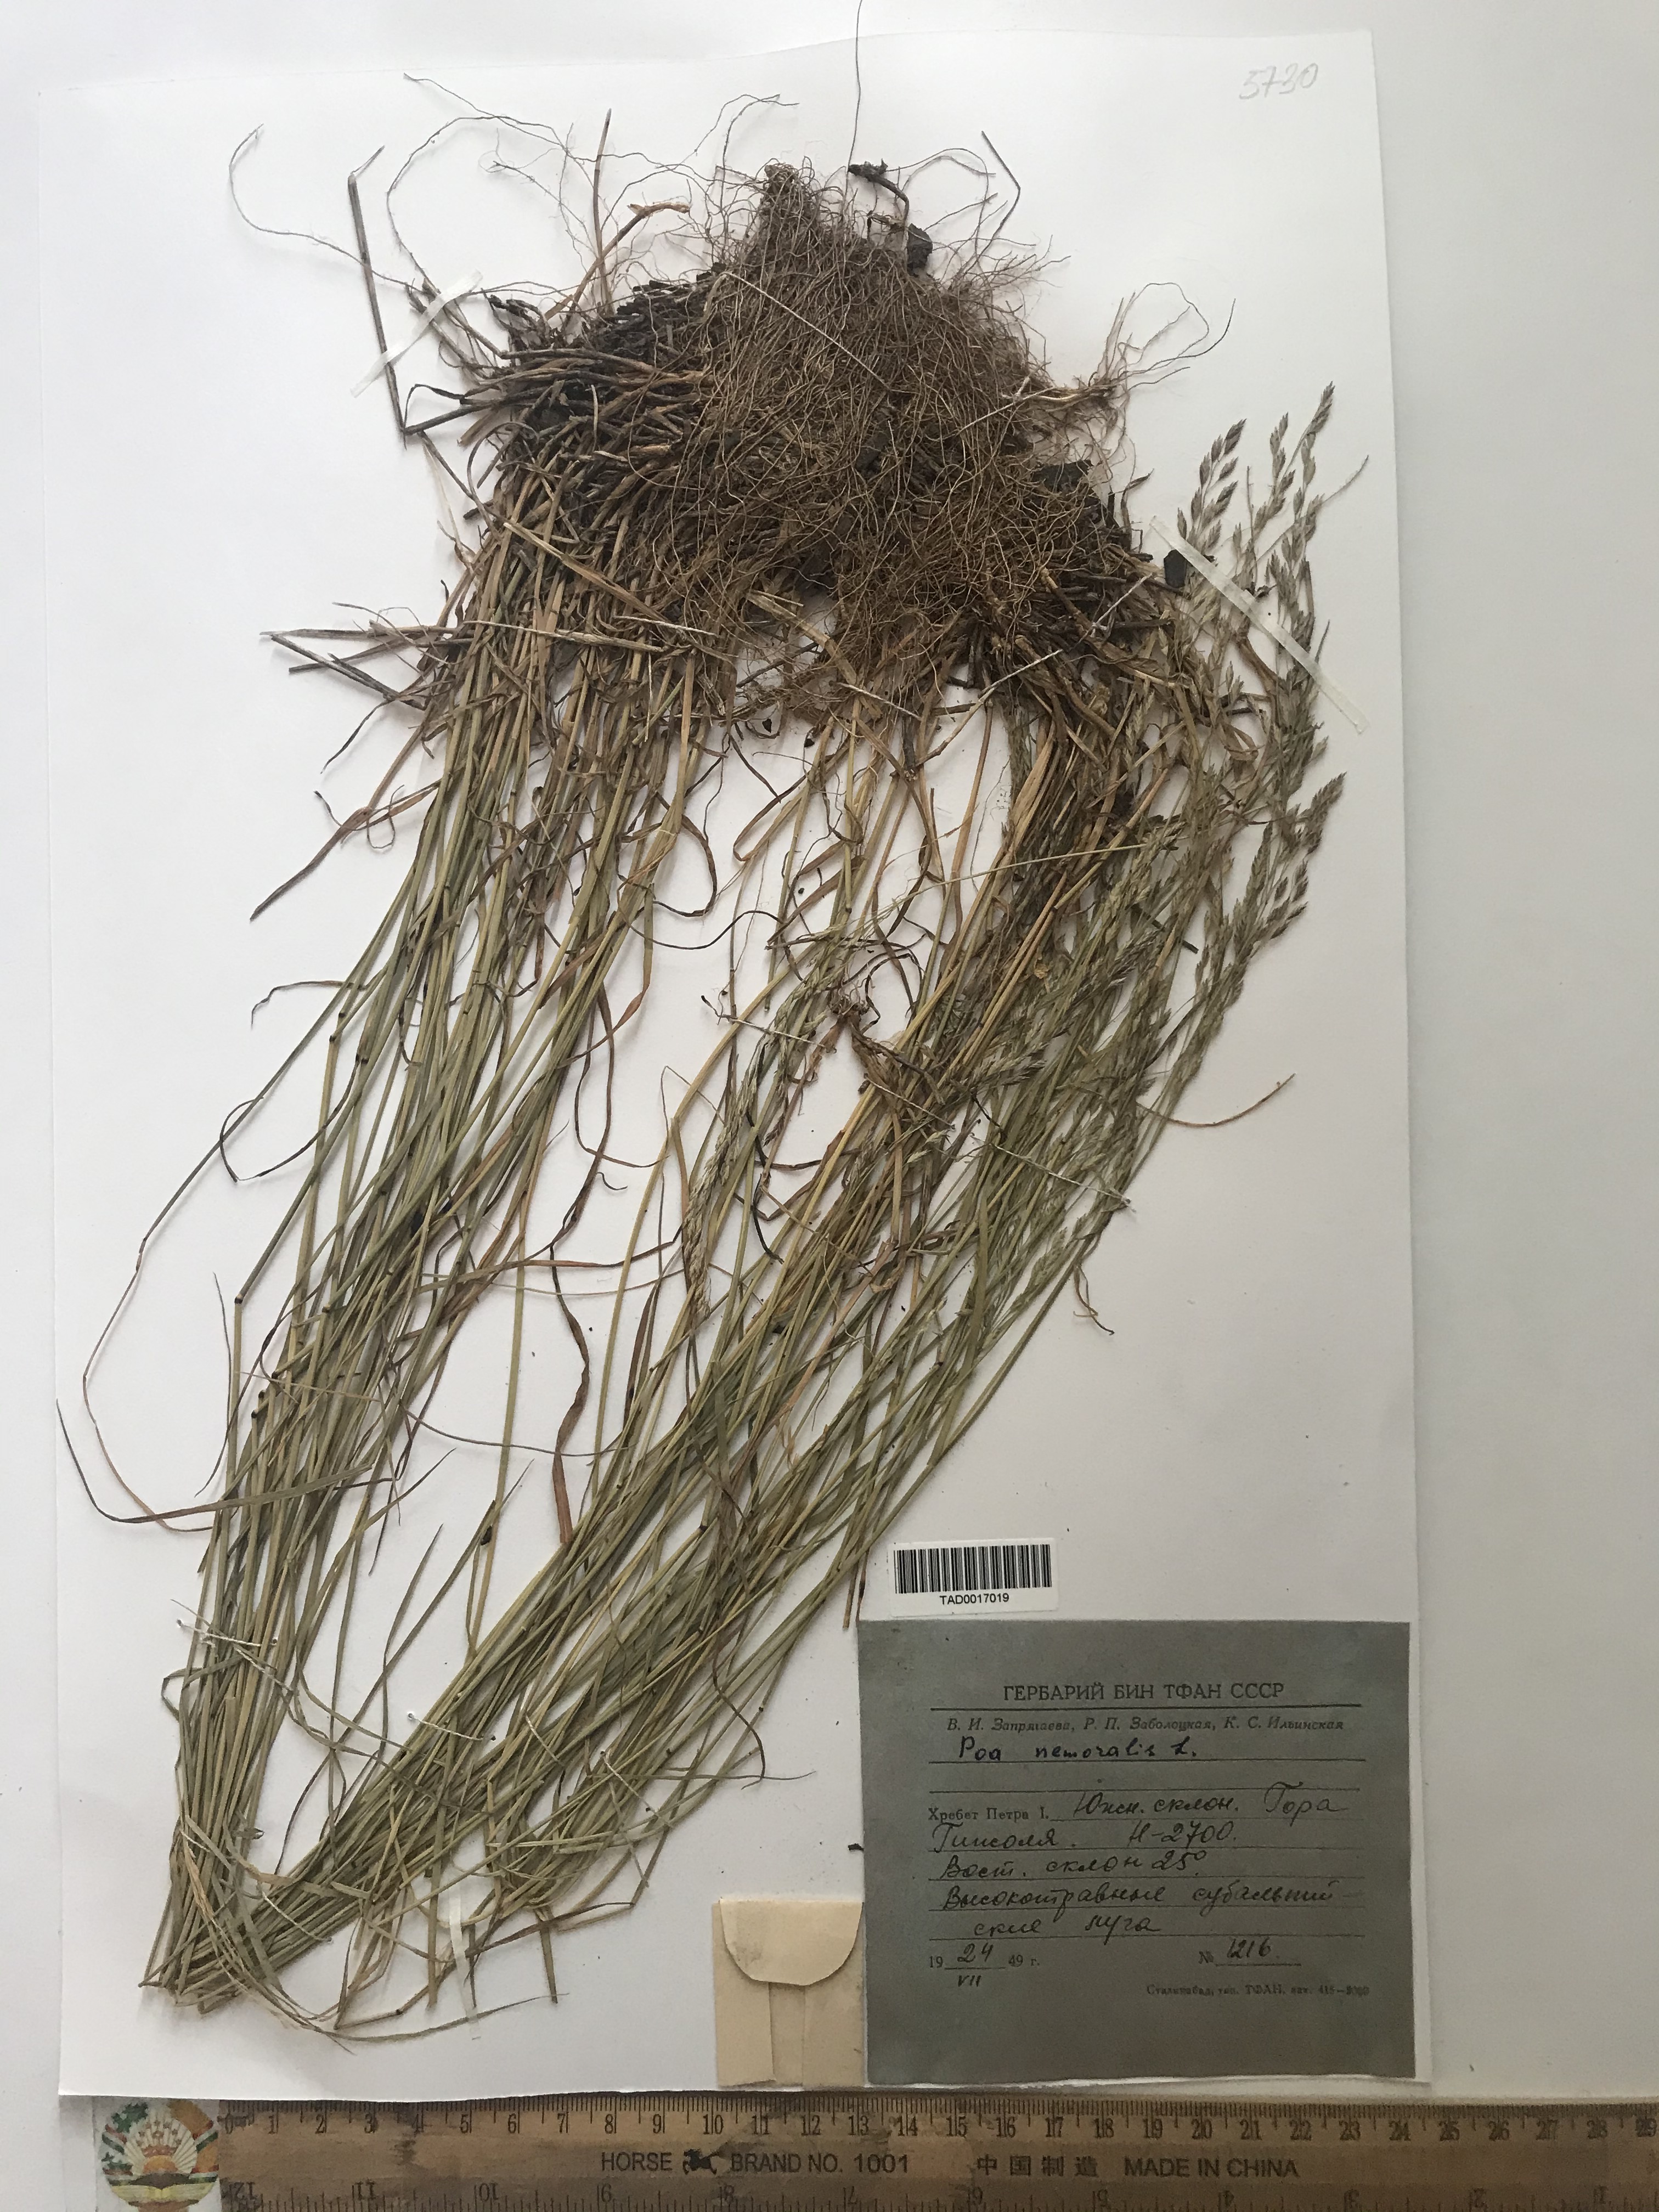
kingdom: Plantae
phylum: Tracheophyta
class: Liliopsida
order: Poales
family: Poaceae
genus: Poa
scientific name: Poa nemoralis
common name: Wood bluegrass
